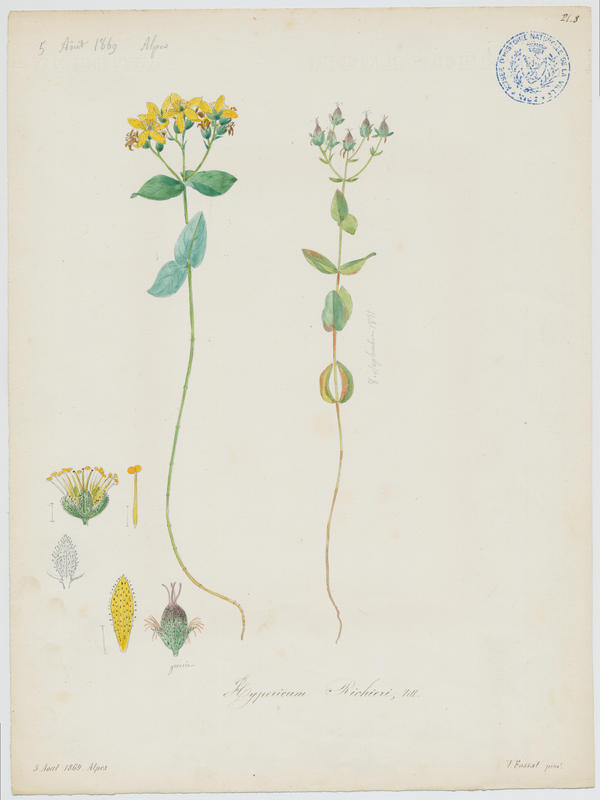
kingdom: Plantae
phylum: Tracheophyta
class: Magnoliopsida
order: Malpighiales
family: Hypericaceae
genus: Hypericum
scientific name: Hypericum richeri
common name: Alpine st john's-wort
